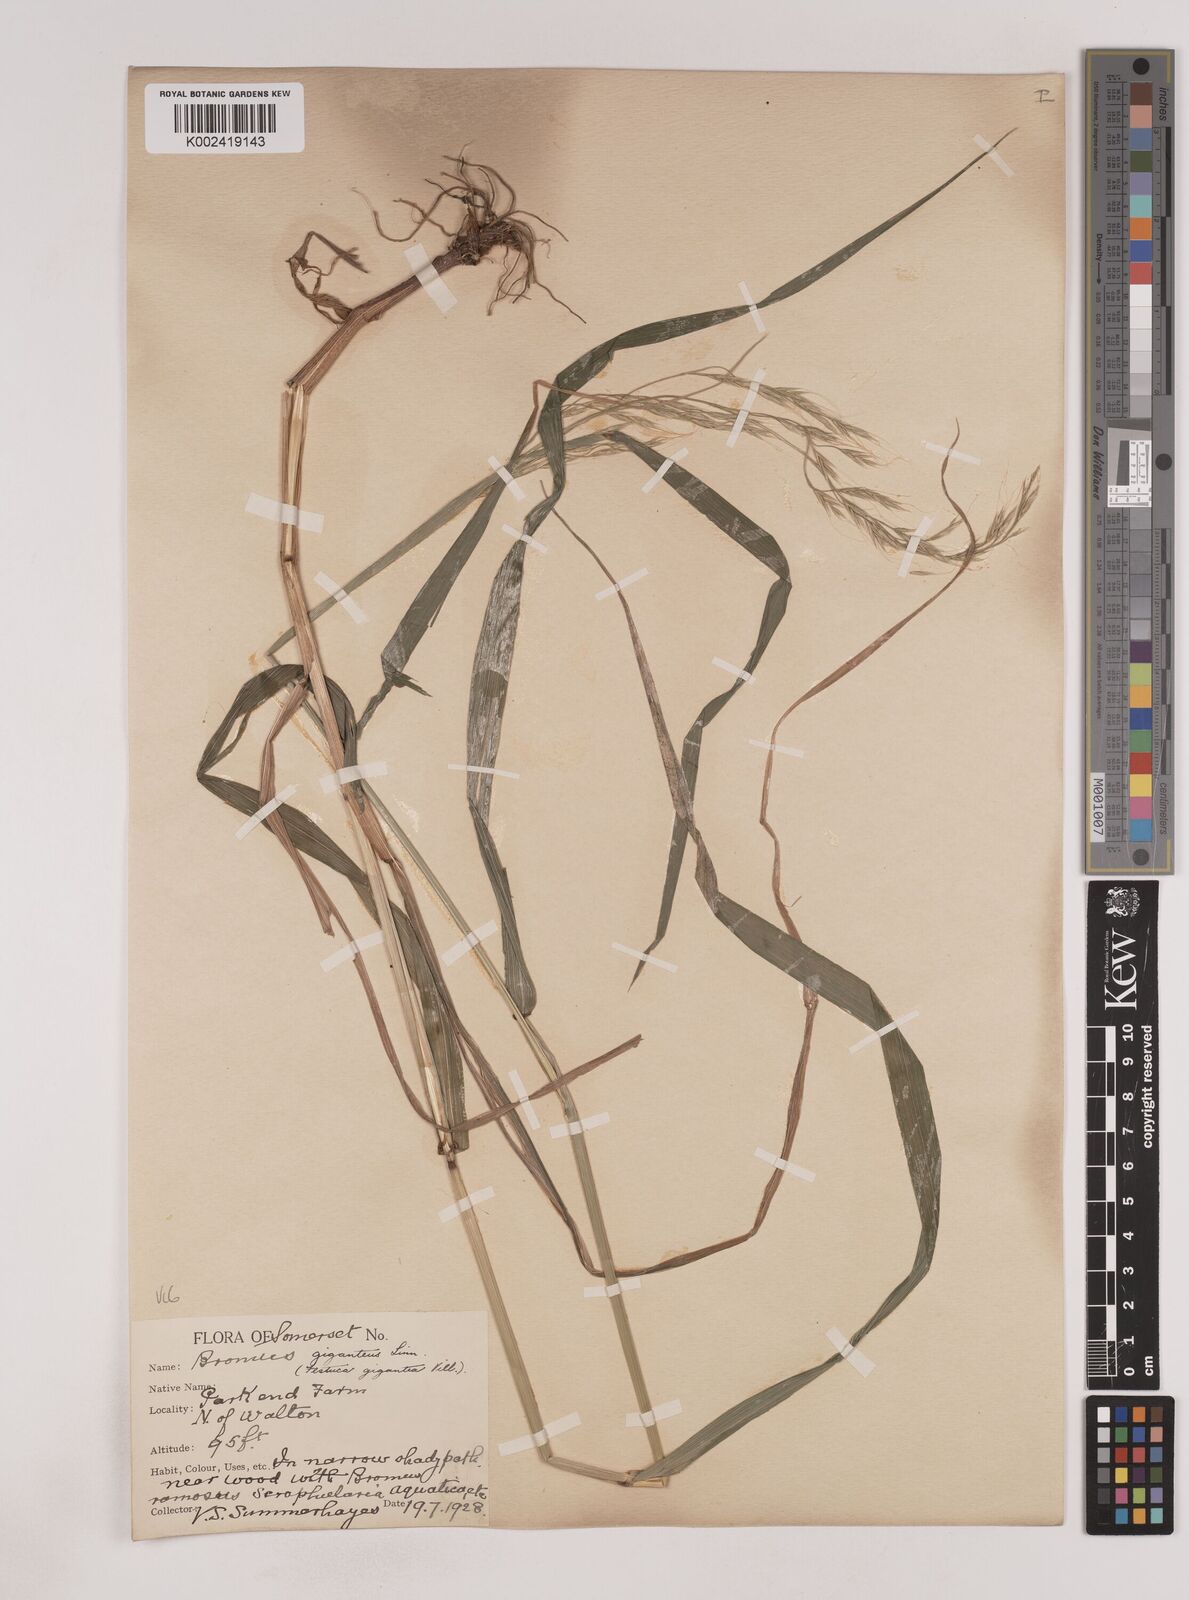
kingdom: Plantae
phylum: Tracheophyta
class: Liliopsida
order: Poales
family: Poaceae
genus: Lolium
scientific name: Lolium giganteum
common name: Giant fescue
